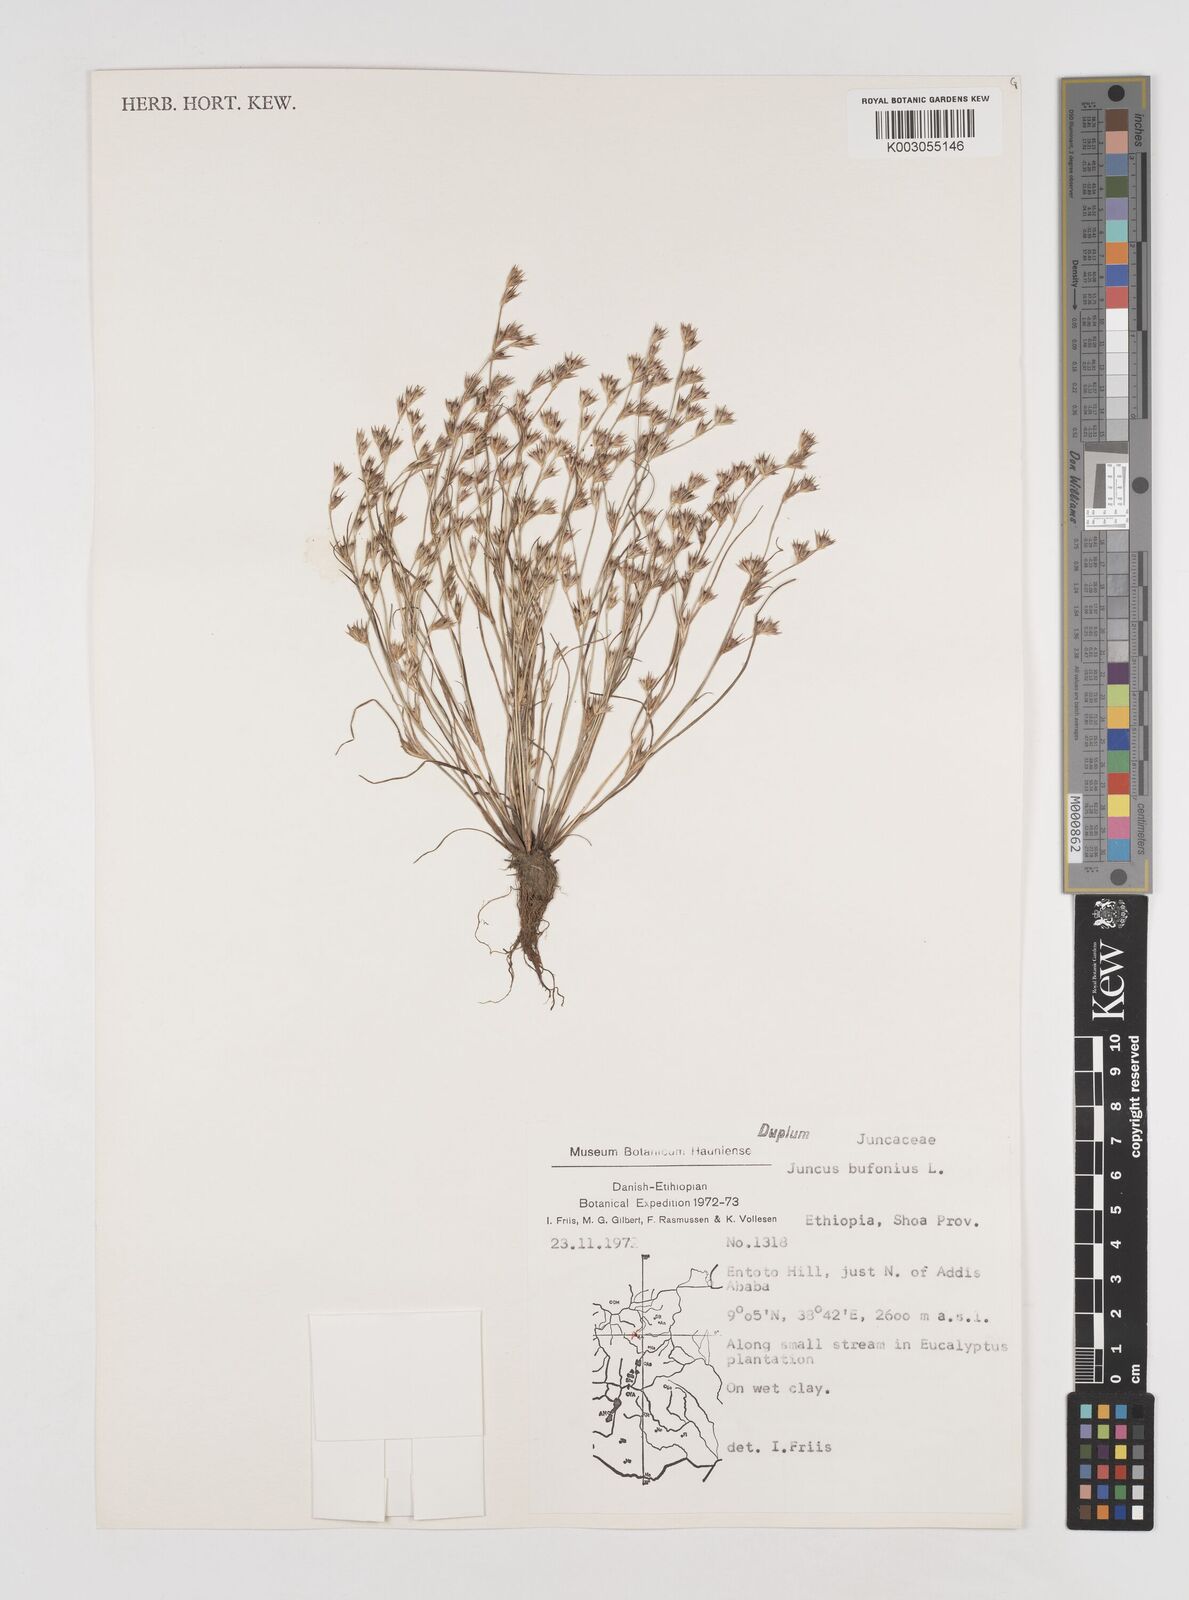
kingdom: Plantae
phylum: Tracheophyta
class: Liliopsida
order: Poales
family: Juncaceae
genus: Juncus
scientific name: Juncus bufonius
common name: Toad rush
